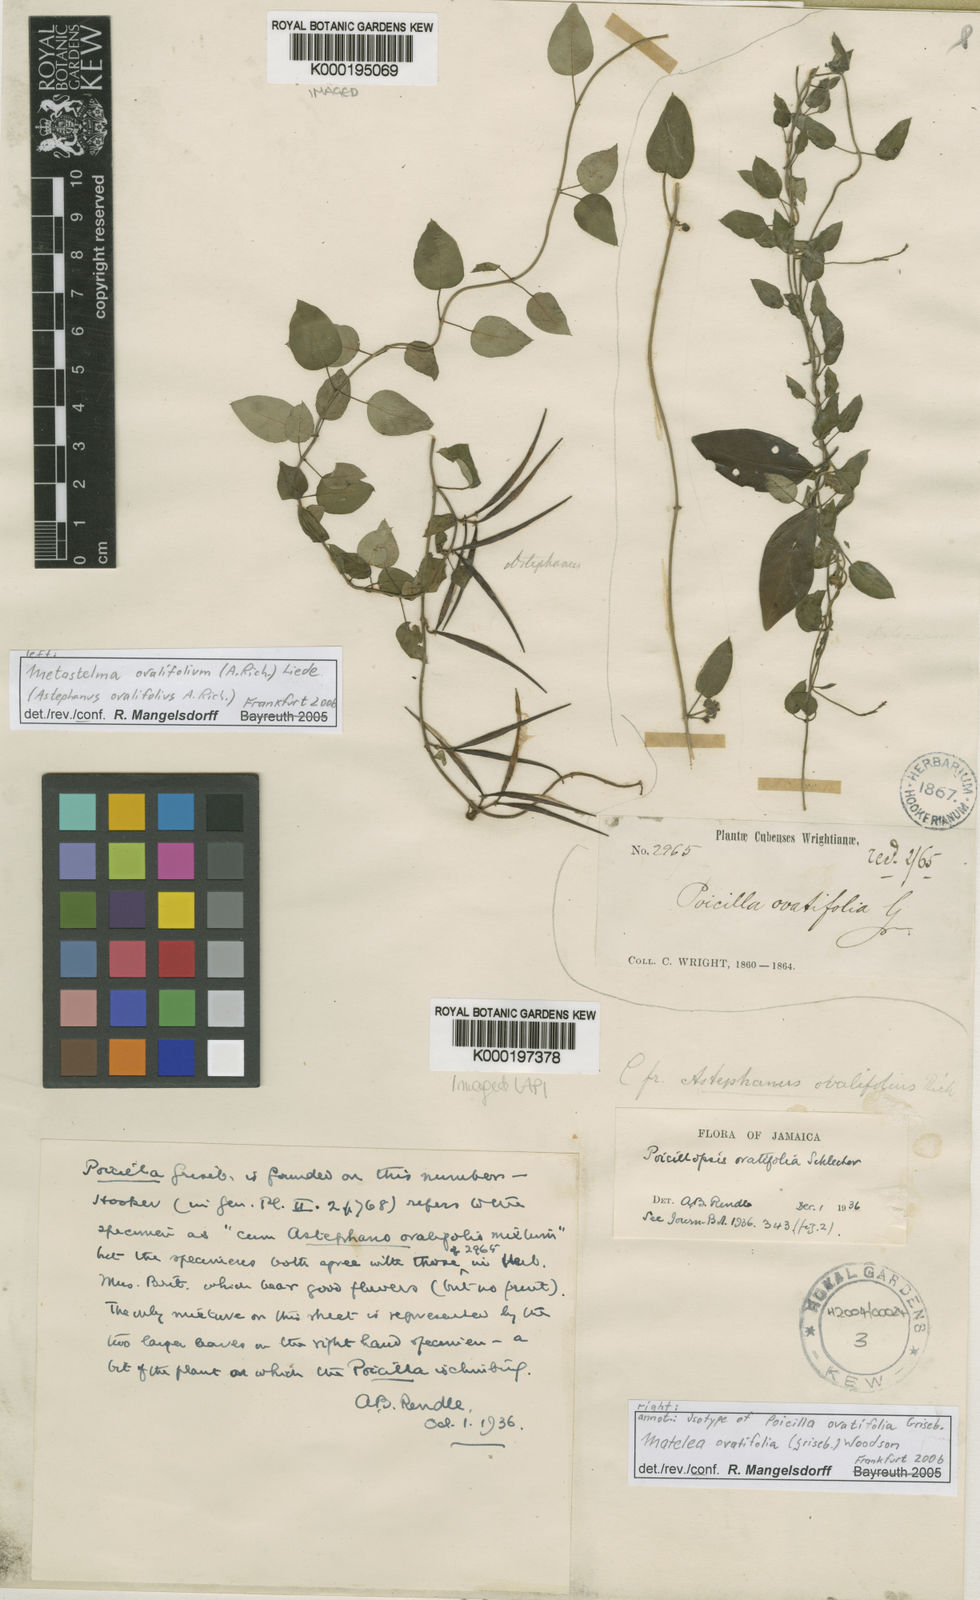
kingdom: Plantae
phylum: Tracheophyta
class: Magnoliopsida
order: Gentianales
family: Apocynaceae
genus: Tylodontia
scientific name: Tylodontia urceolata
